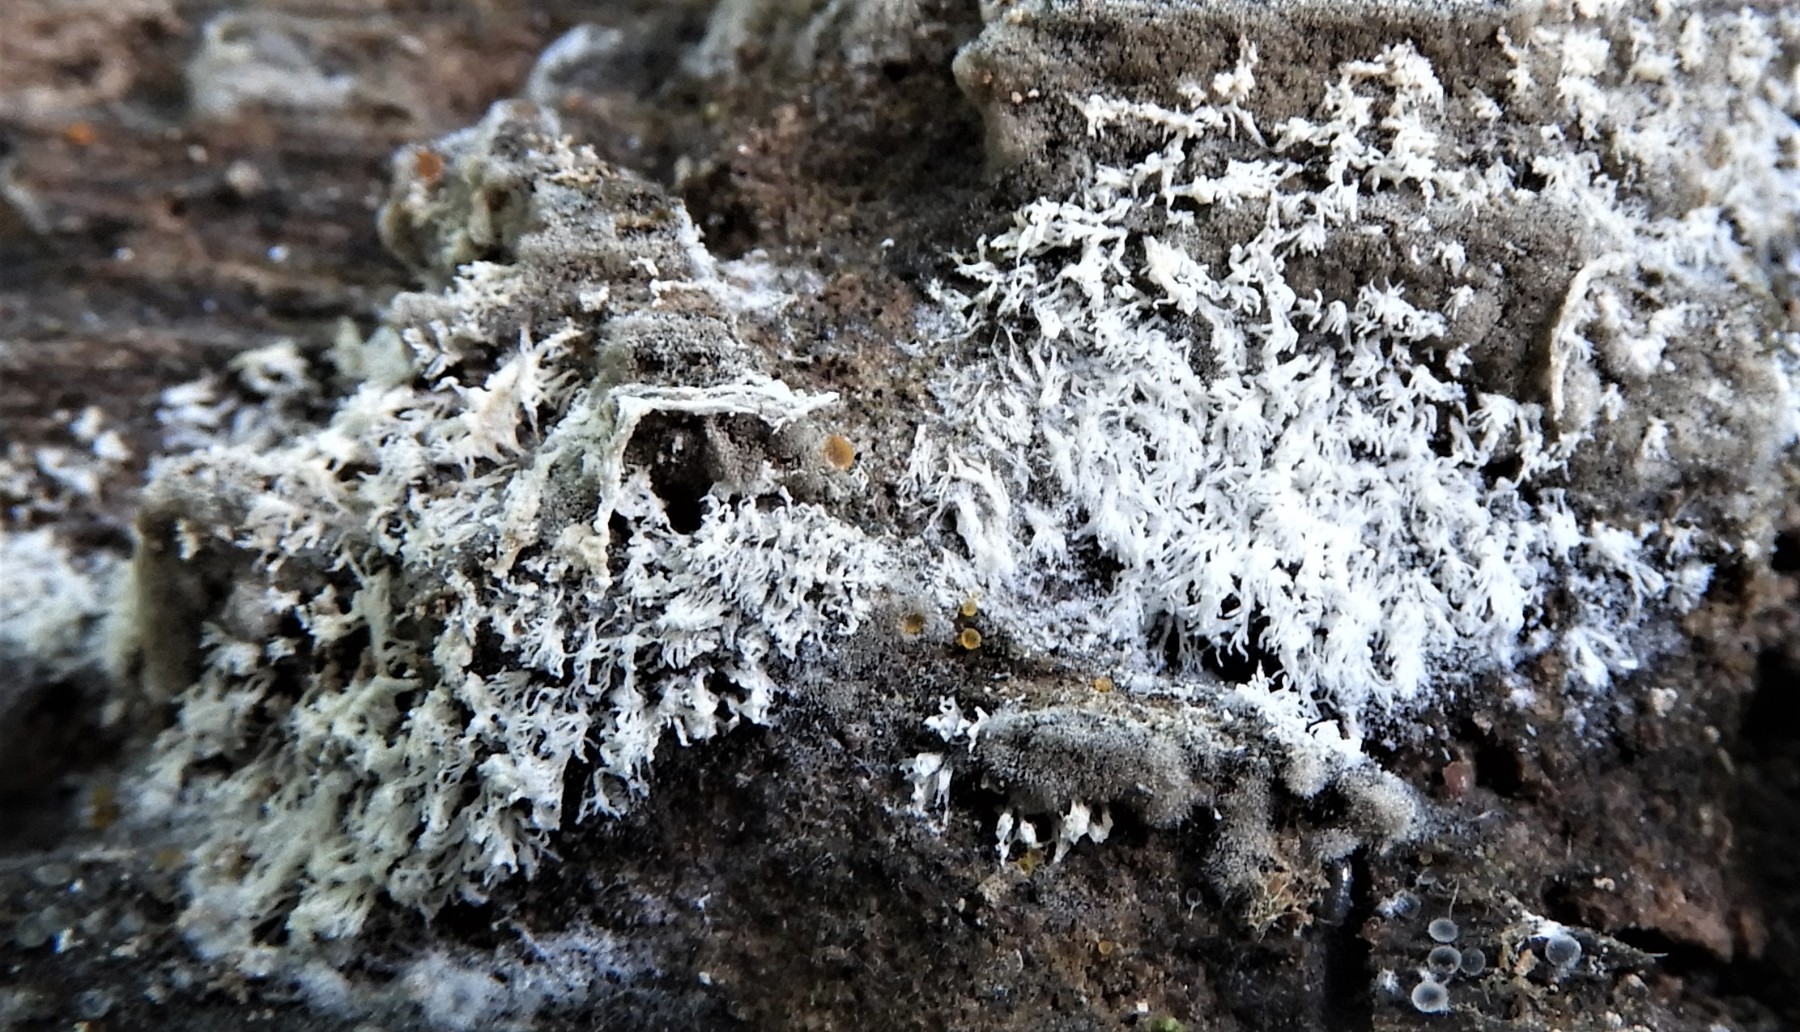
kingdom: Protozoa
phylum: Mycetozoa
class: Protosteliomycetes
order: Ceratiomyxales
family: Ceratiomyxaceae
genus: Ceratiomyxa
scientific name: Ceratiomyxa fruticulosa
